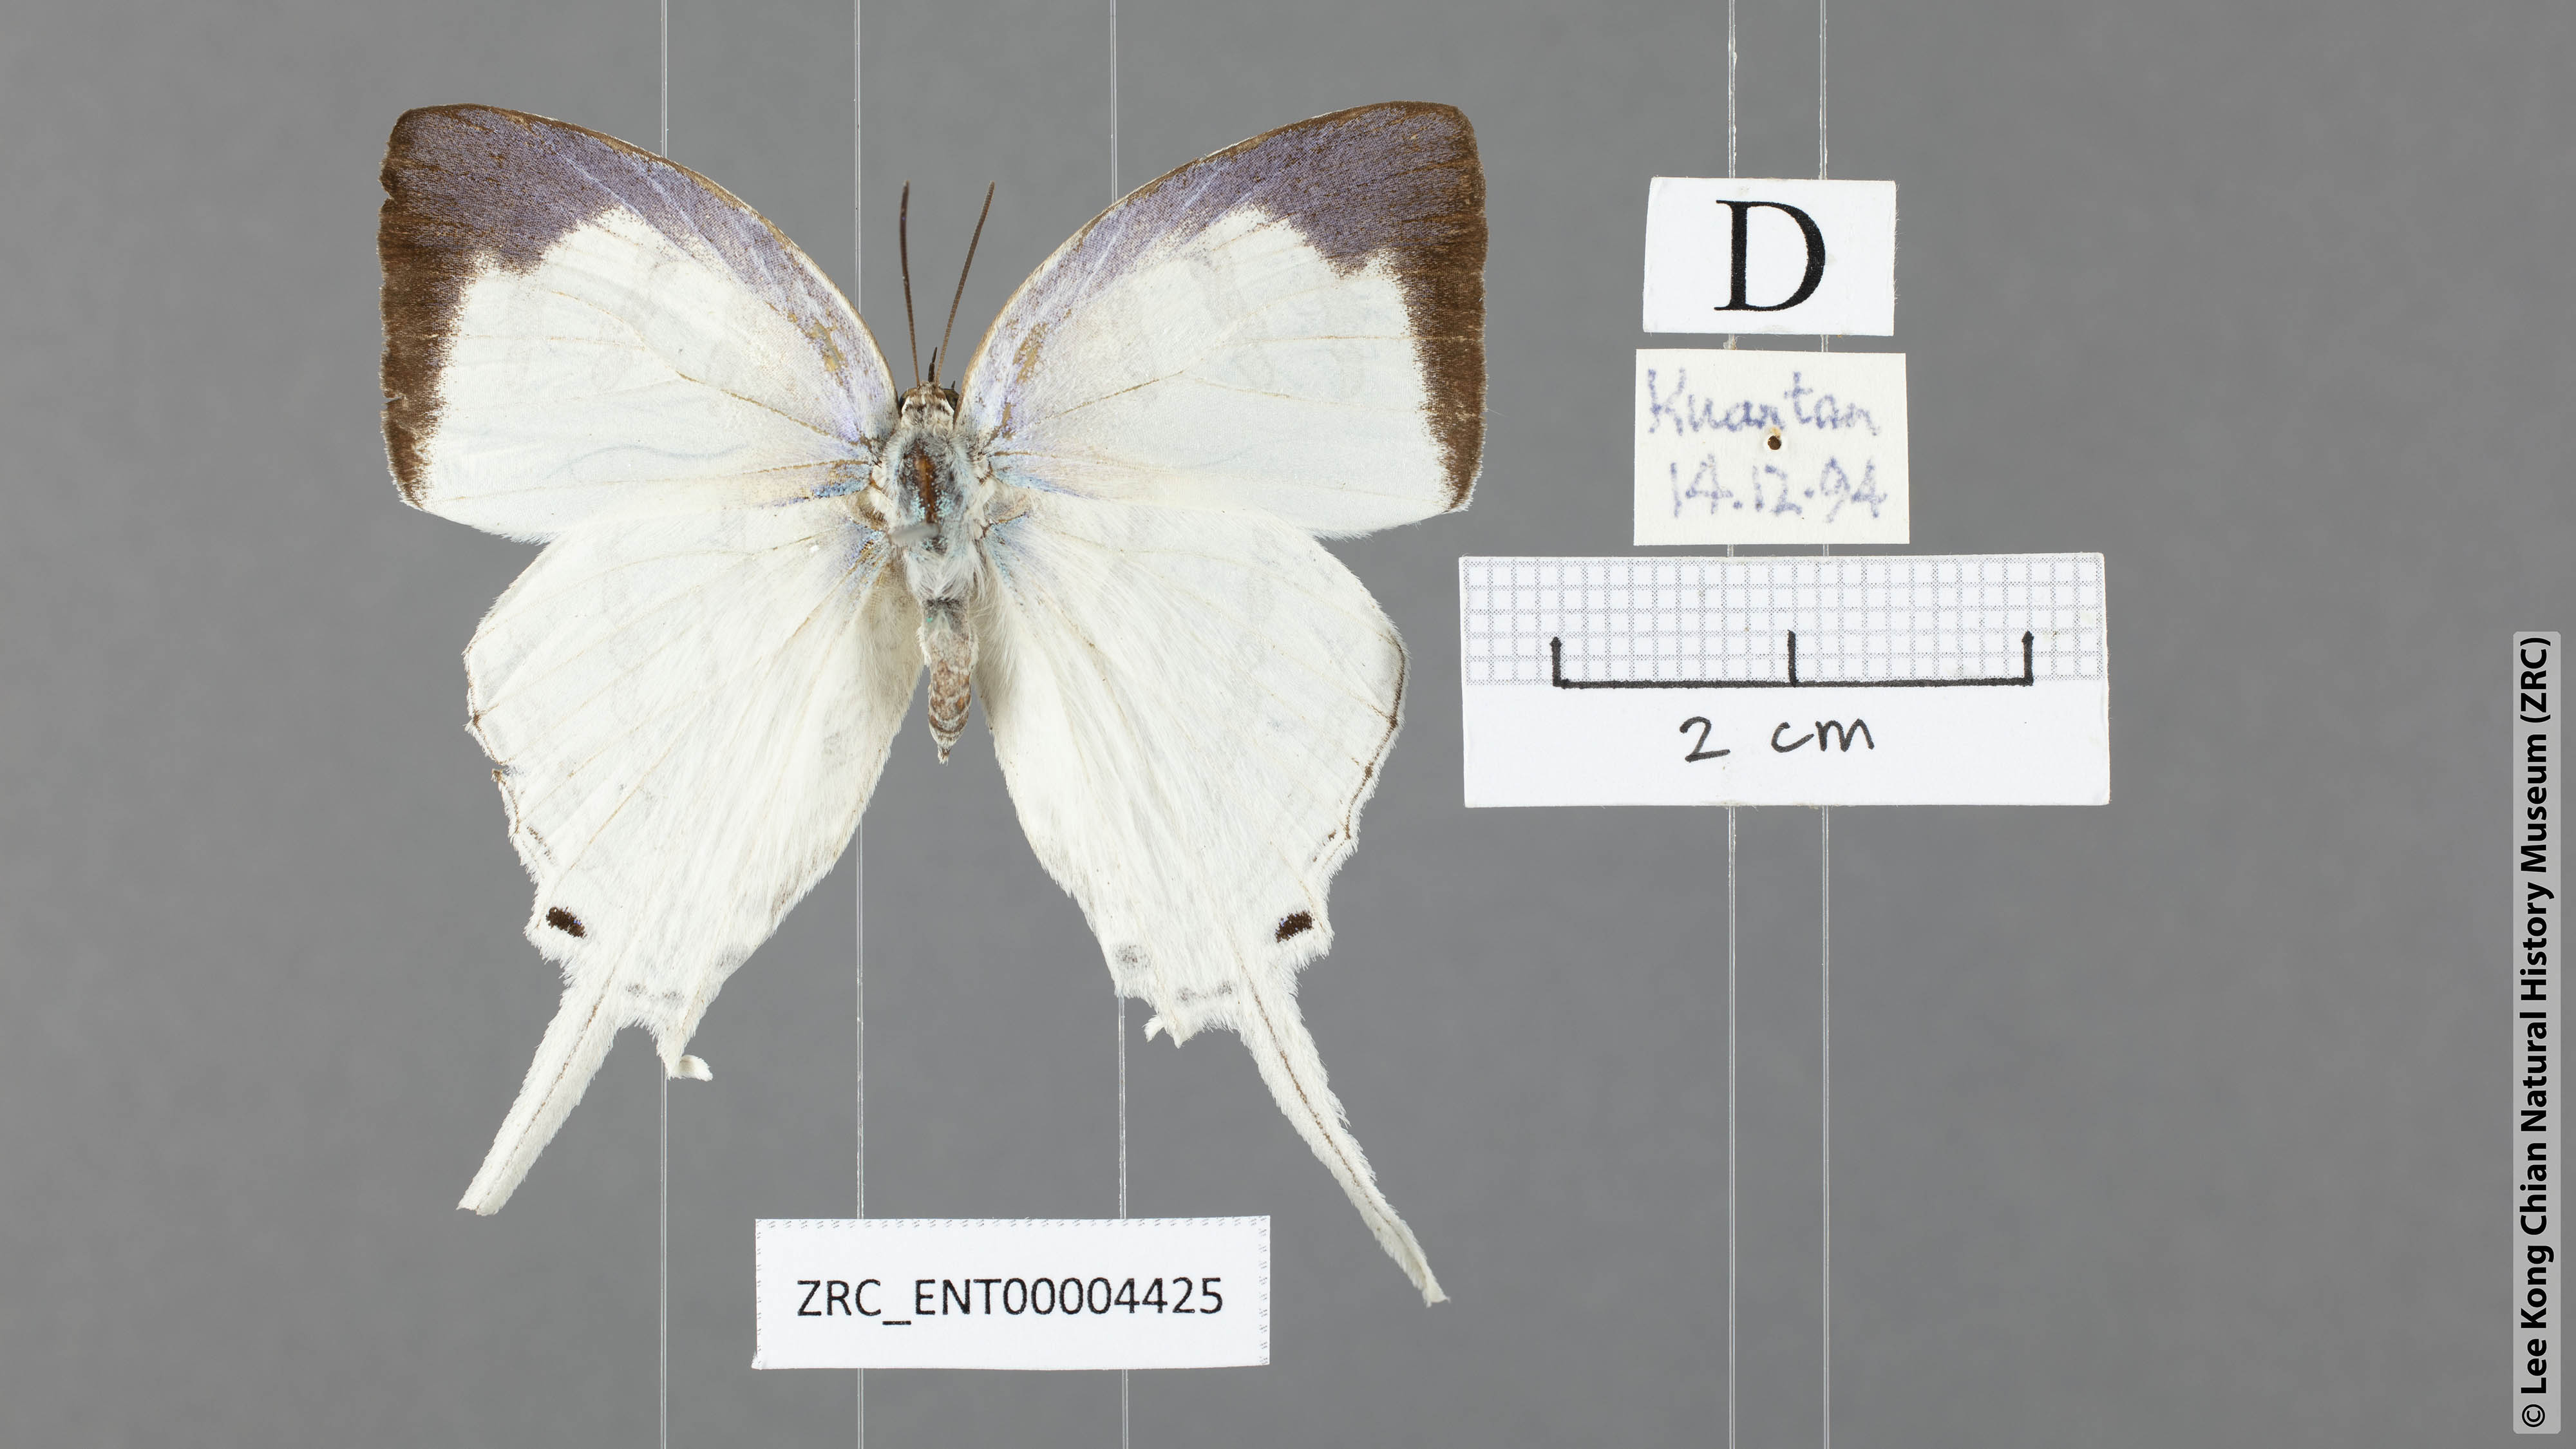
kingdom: Animalia
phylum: Arthropoda
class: Insecta
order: Lepidoptera
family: Lycaenidae
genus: Neomyrina
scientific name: Neomyrina nivea
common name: White imperial butterfly
